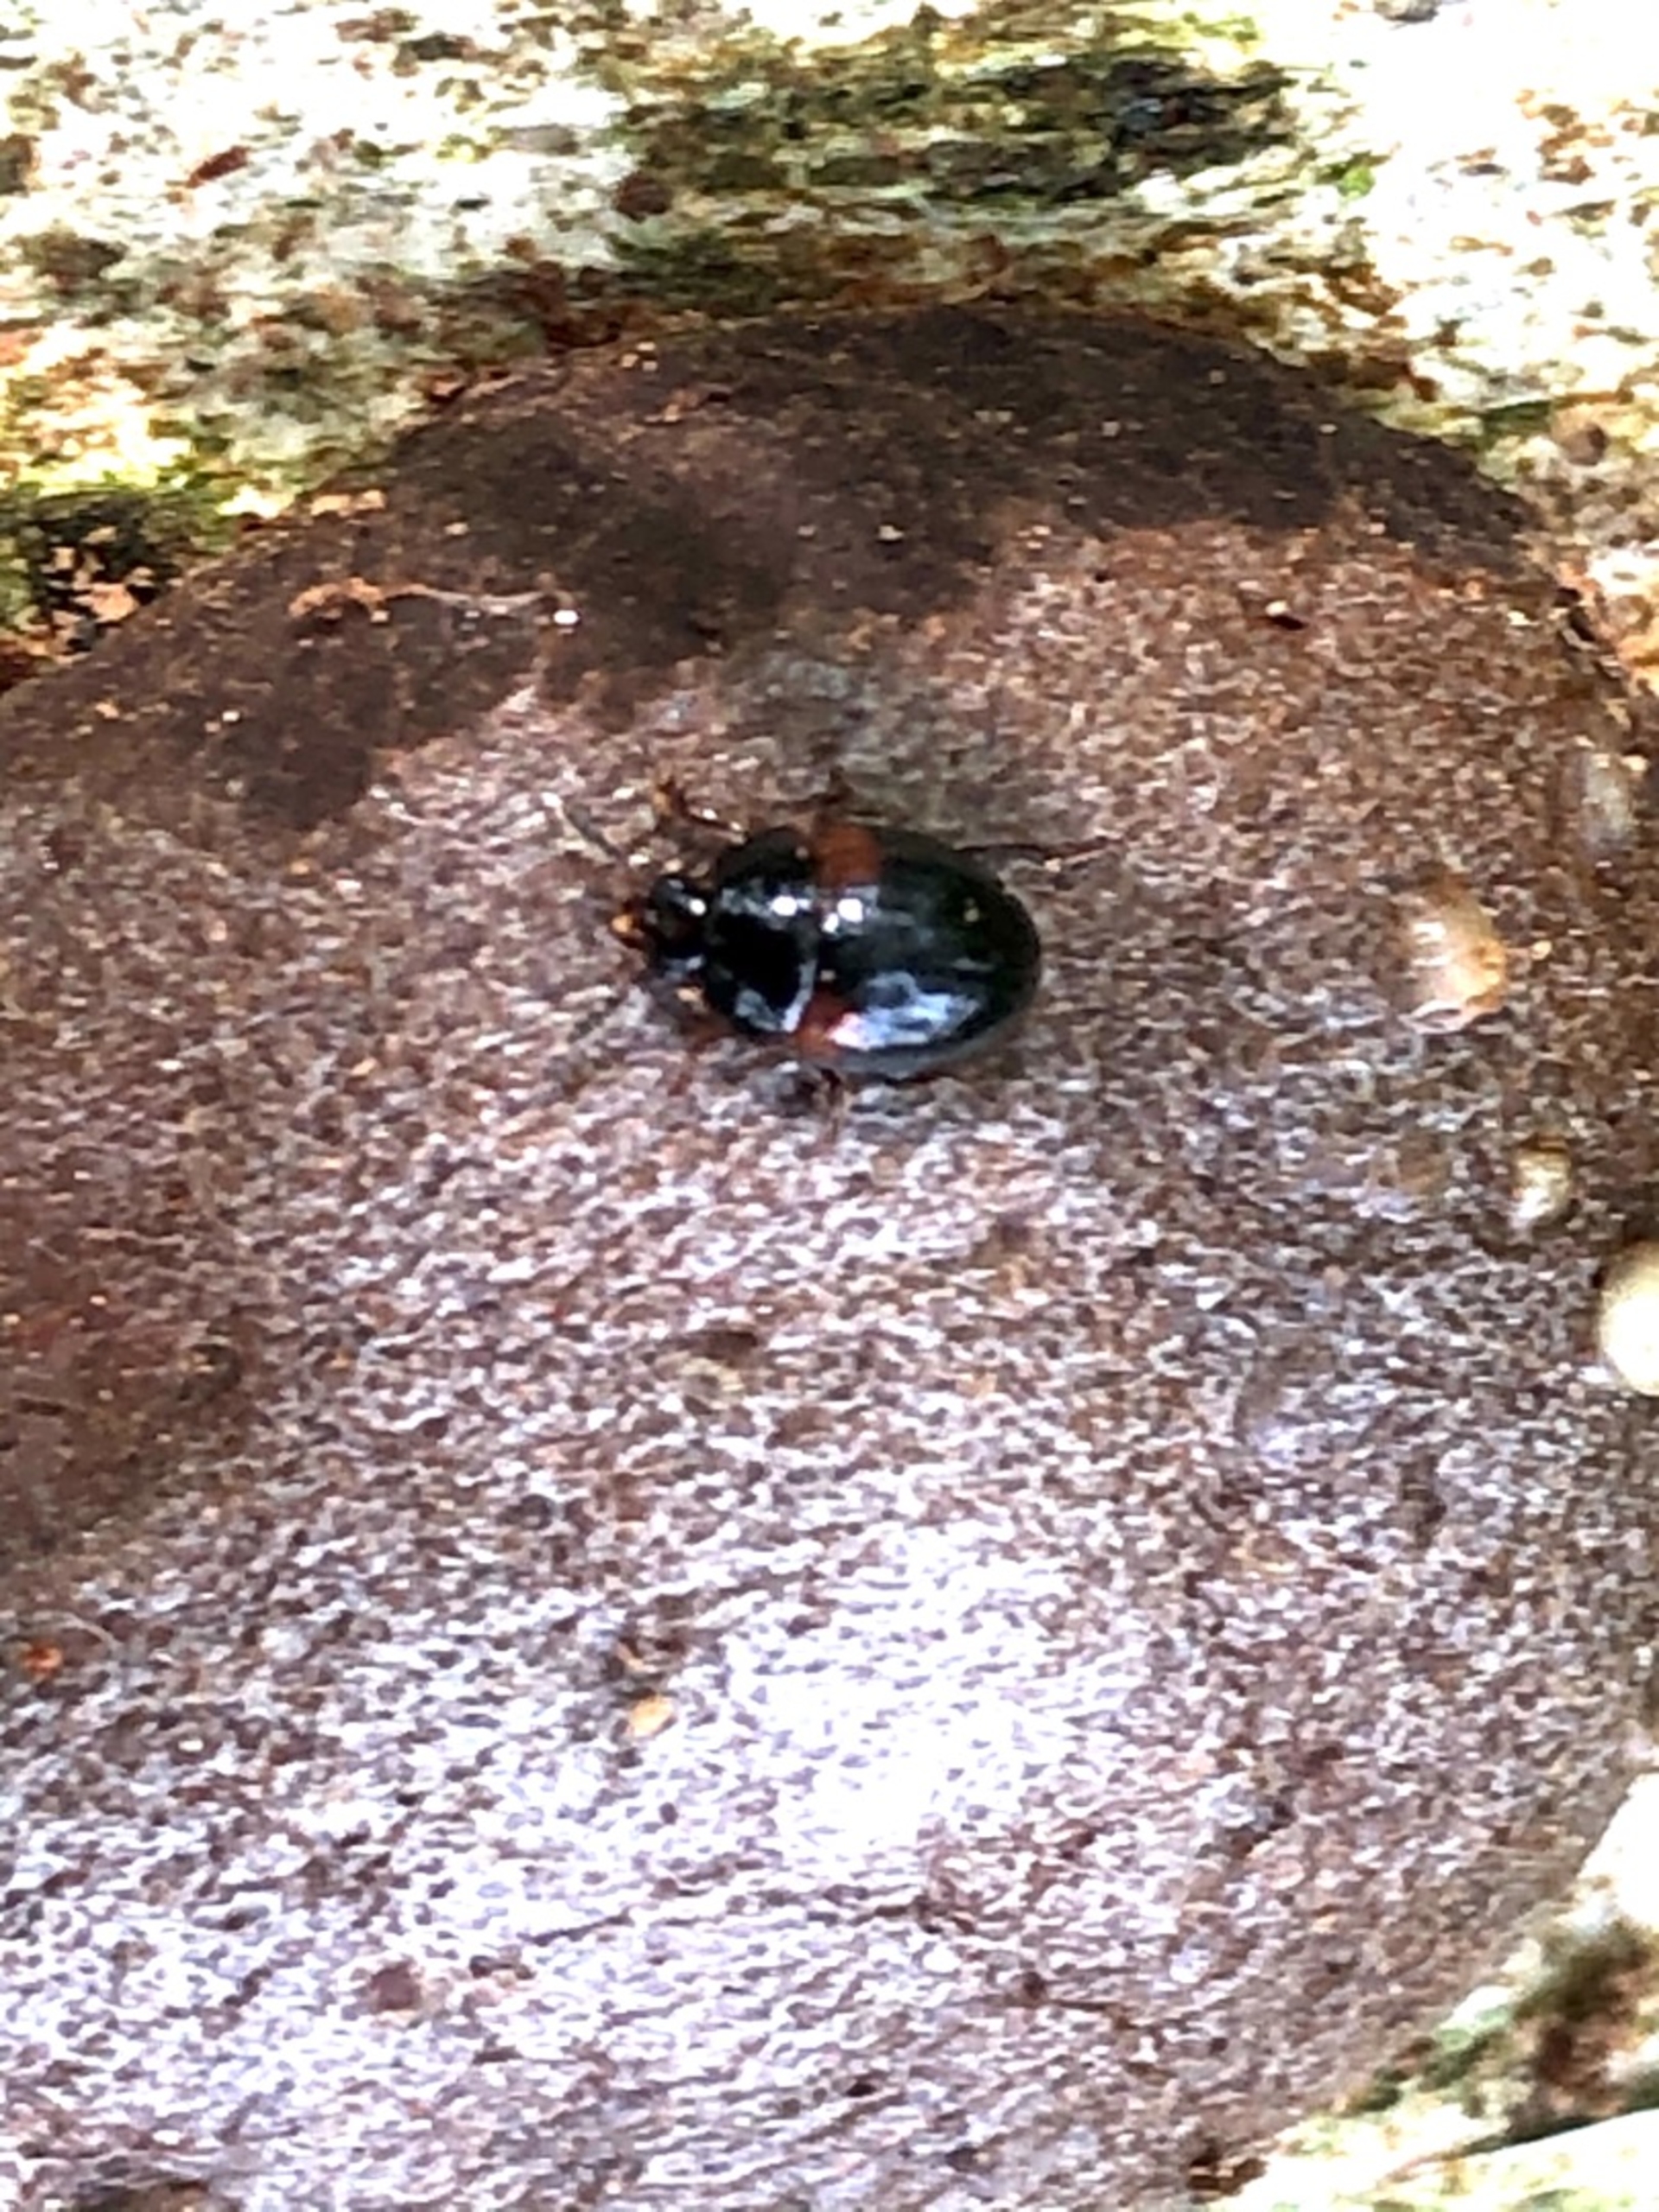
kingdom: Animalia
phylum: Arthropoda
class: Insecta
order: Coleoptera
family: Leiodidae
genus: Anisotoma
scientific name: Anisotoma humeralis
